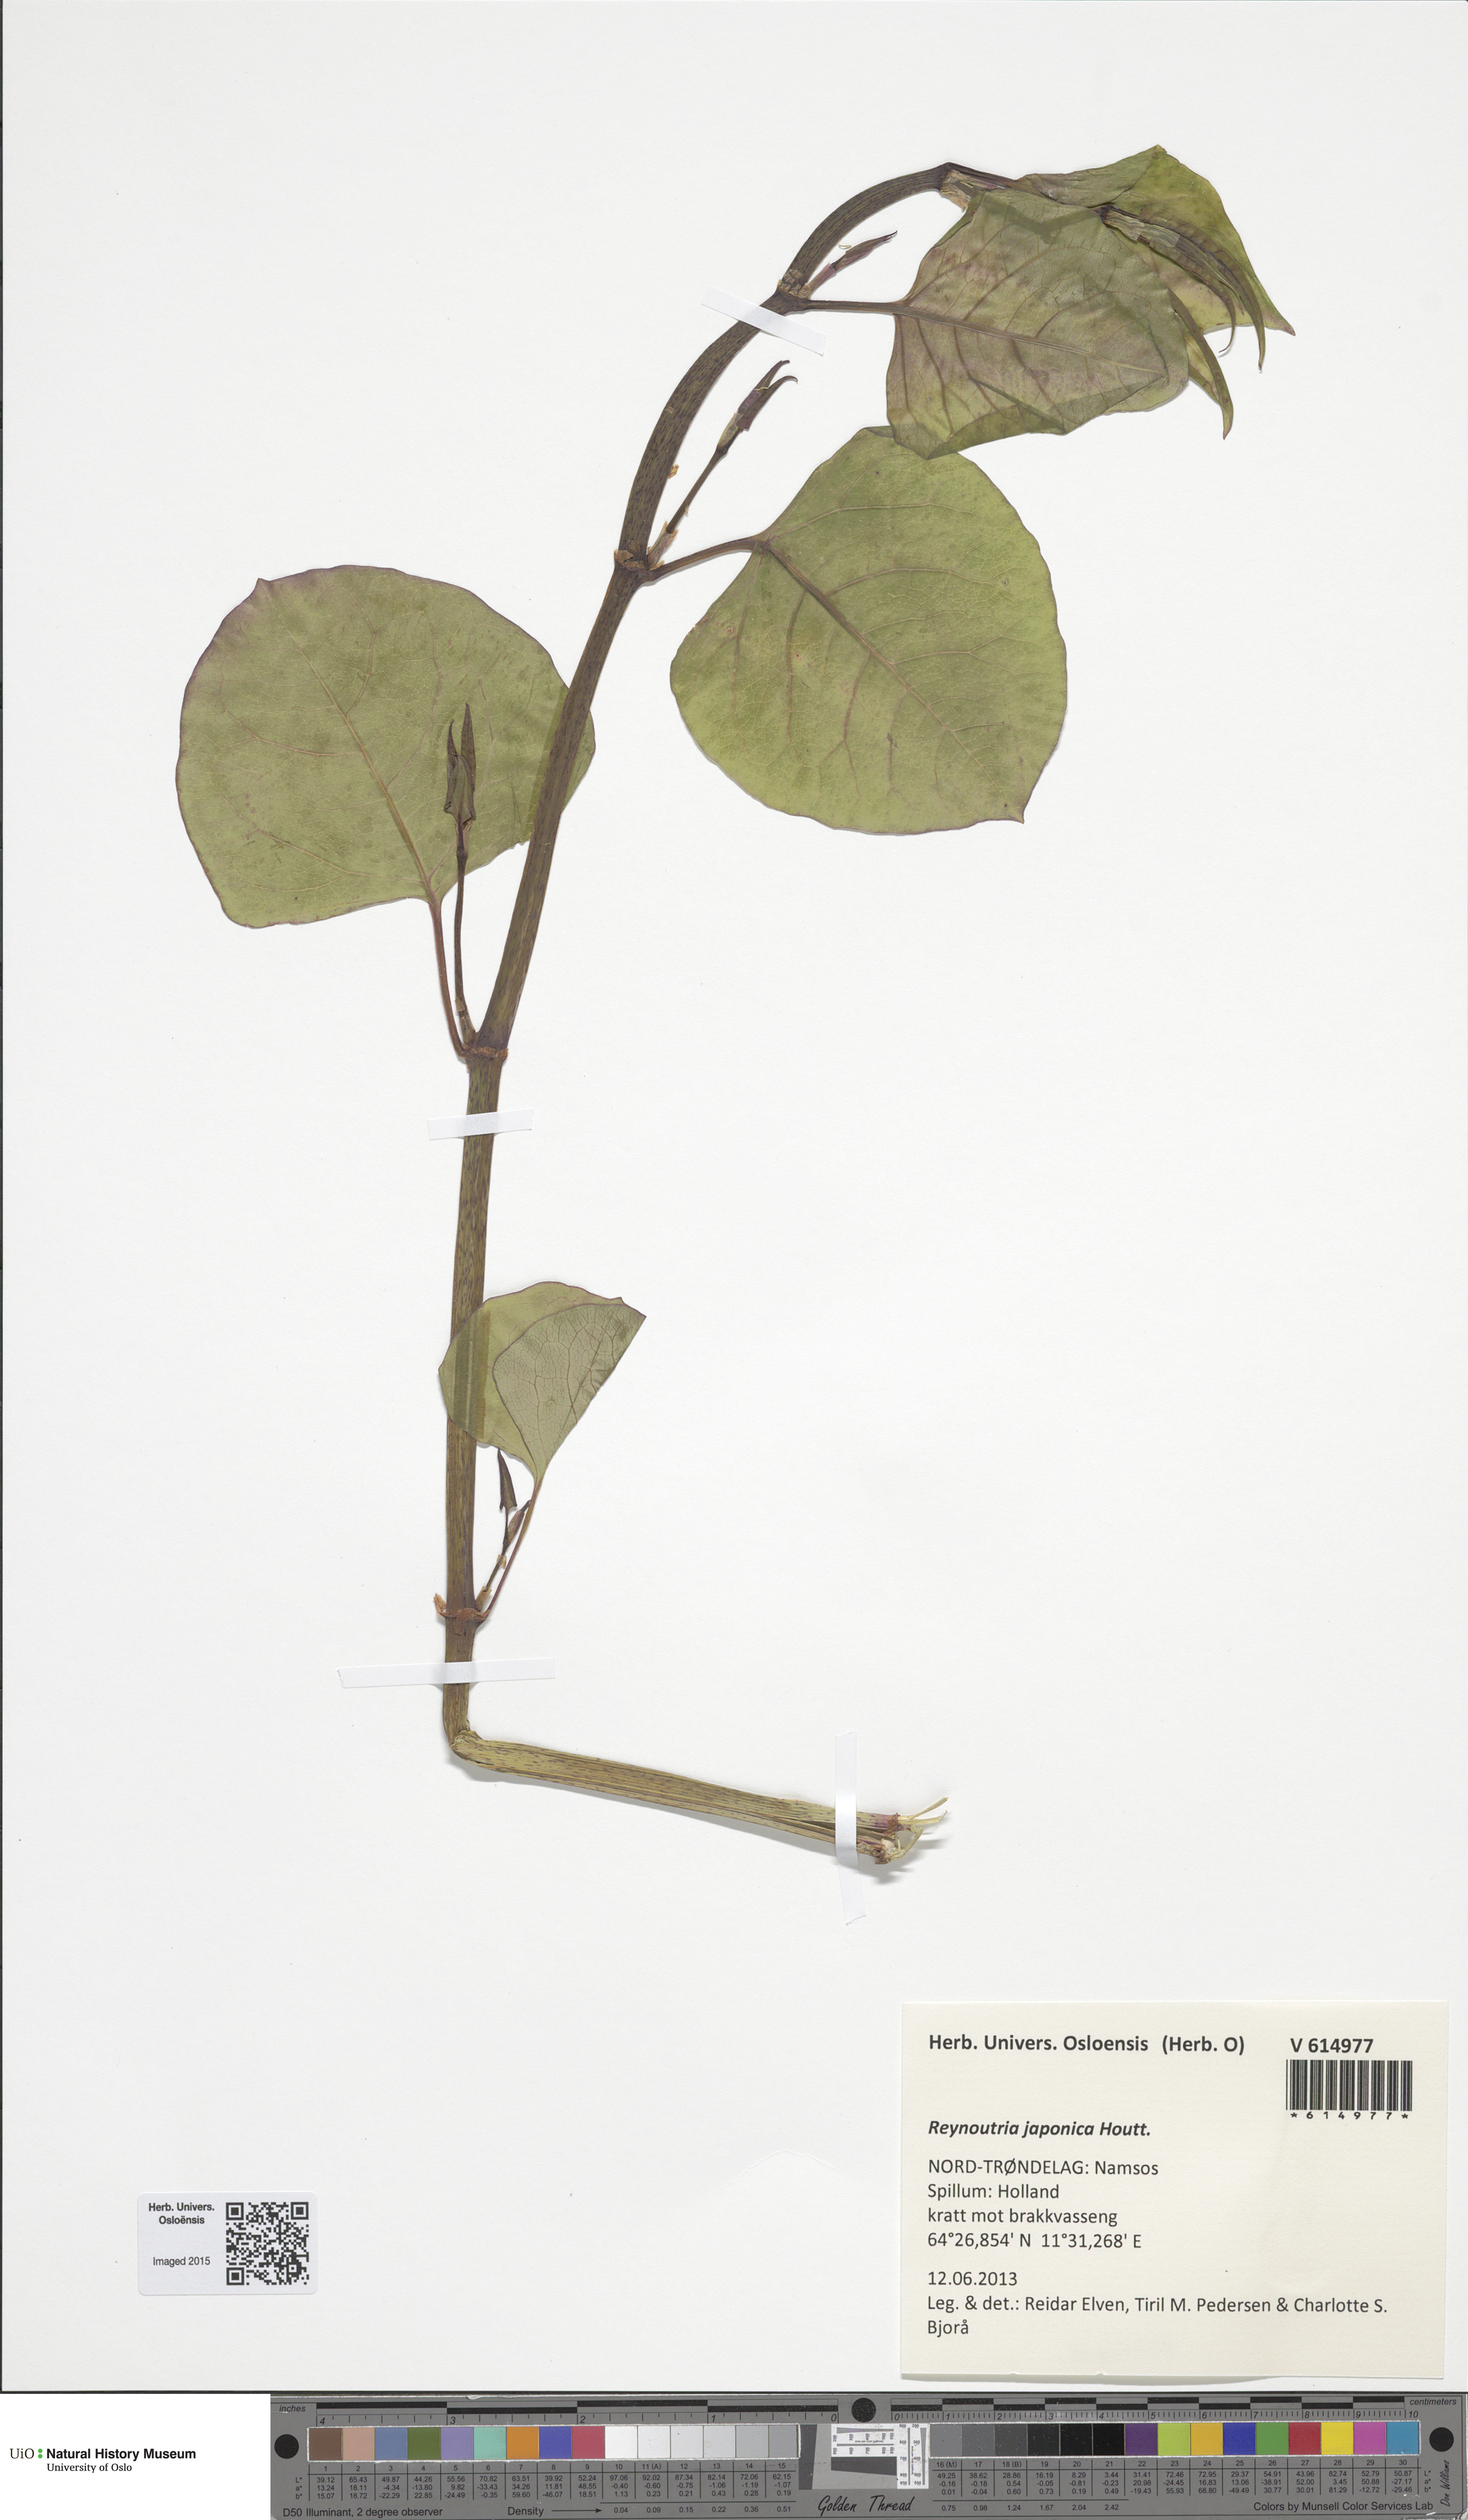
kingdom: Plantae
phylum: Tracheophyta
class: Magnoliopsida
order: Caryophyllales
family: Polygonaceae
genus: Reynoutria
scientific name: Reynoutria japonica
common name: Japanese knotweed
